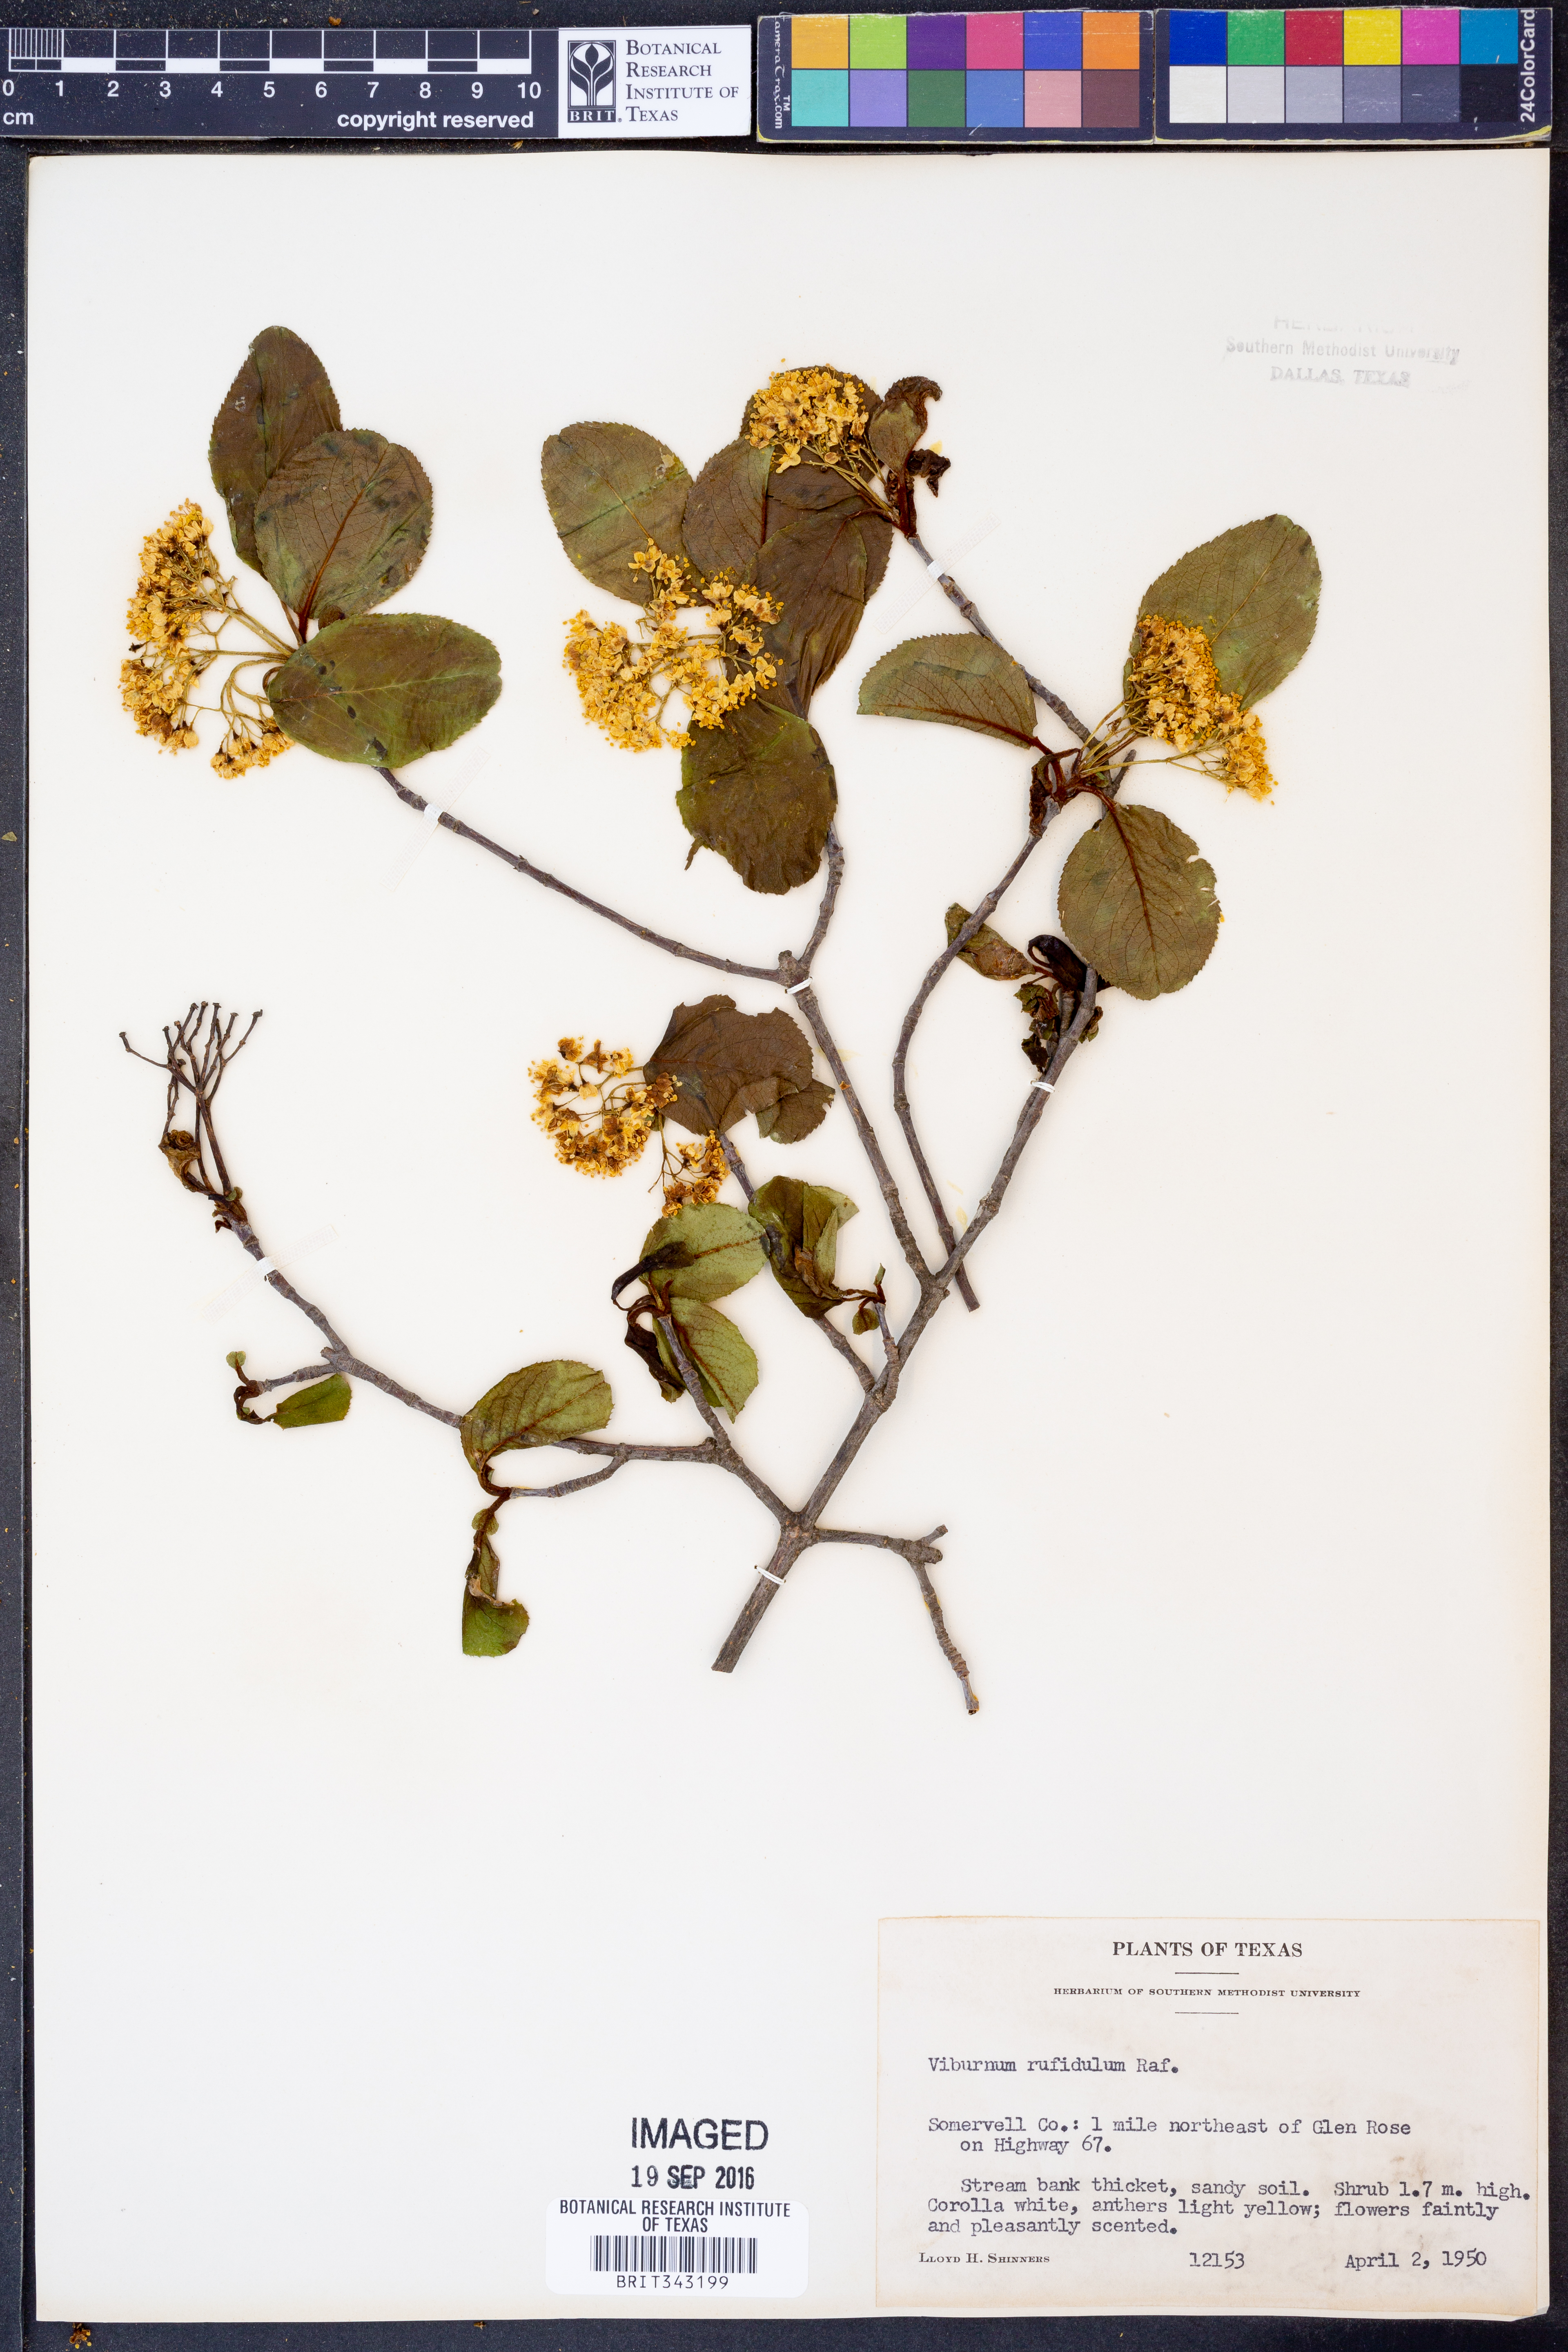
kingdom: Plantae
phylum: Tracheophyta
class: Magnoliopsida
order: Dipsacales
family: Viburnaceae
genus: Viburnum
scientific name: Viburnum rufidulum
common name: Blue haw
